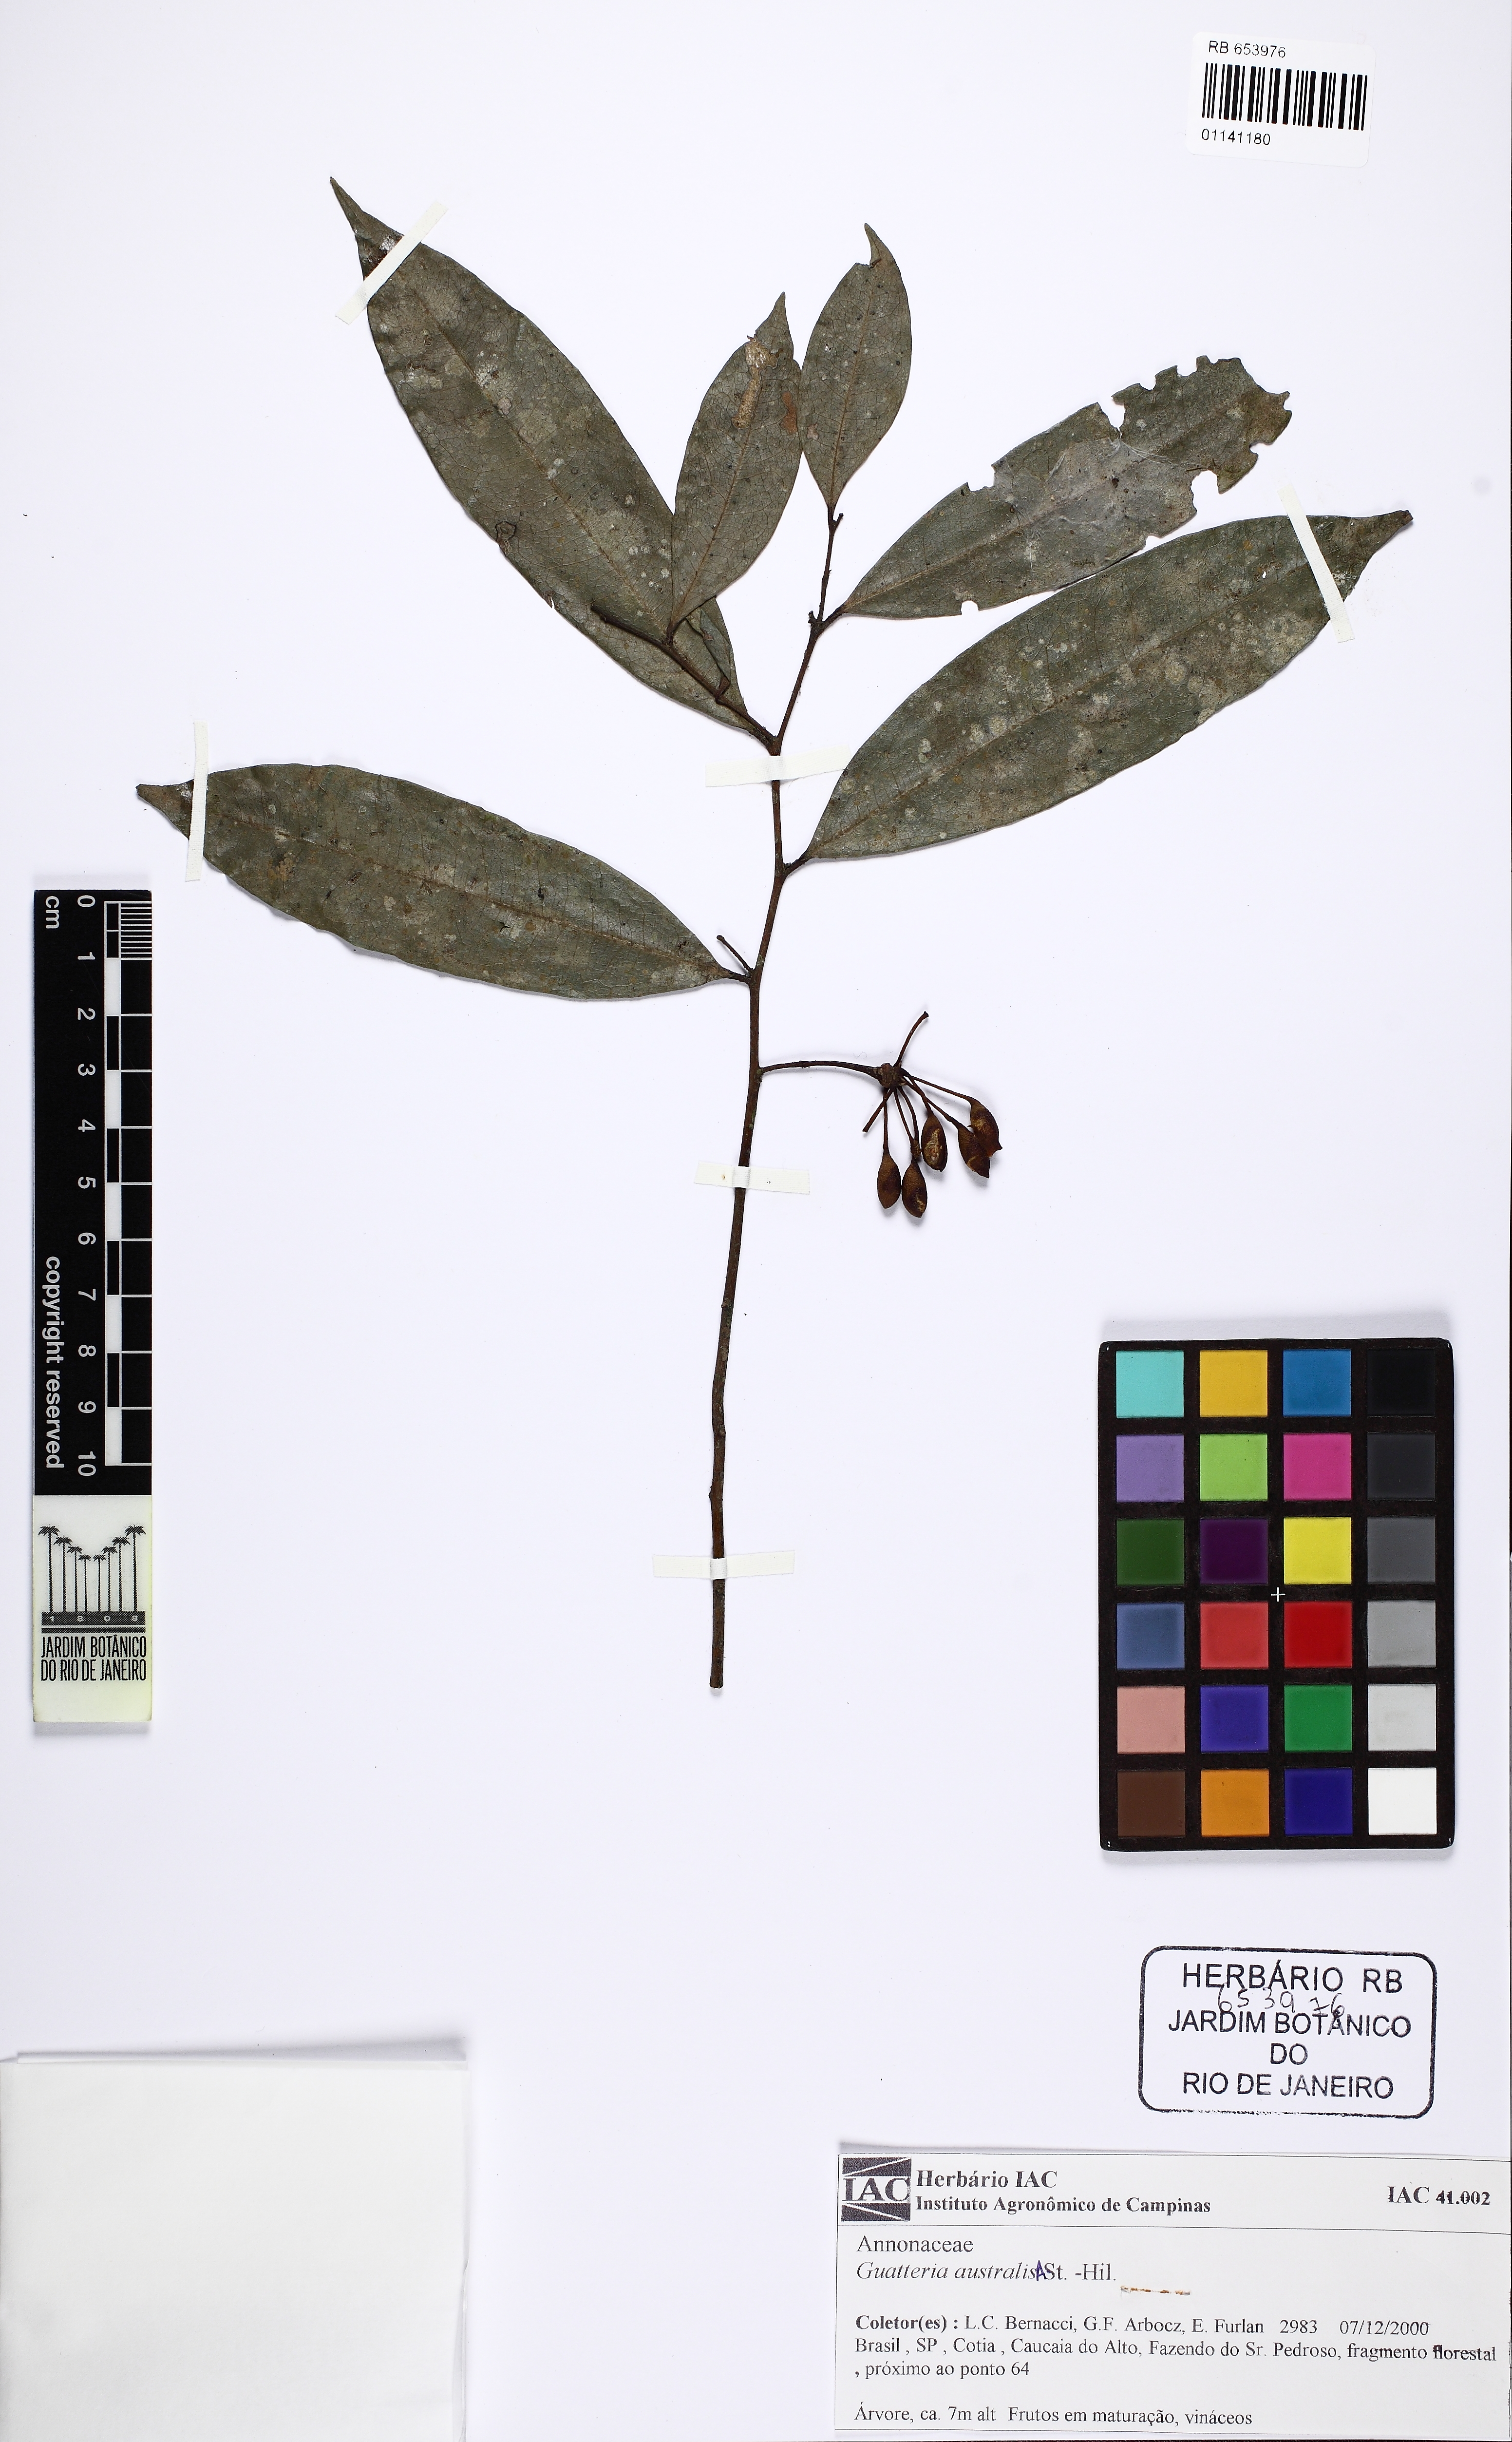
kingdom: Plantae
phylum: Tracheophyta
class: Magnoliopsida
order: Magnoliales
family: Annonaceae
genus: Guatteria
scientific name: Guatteria australis
